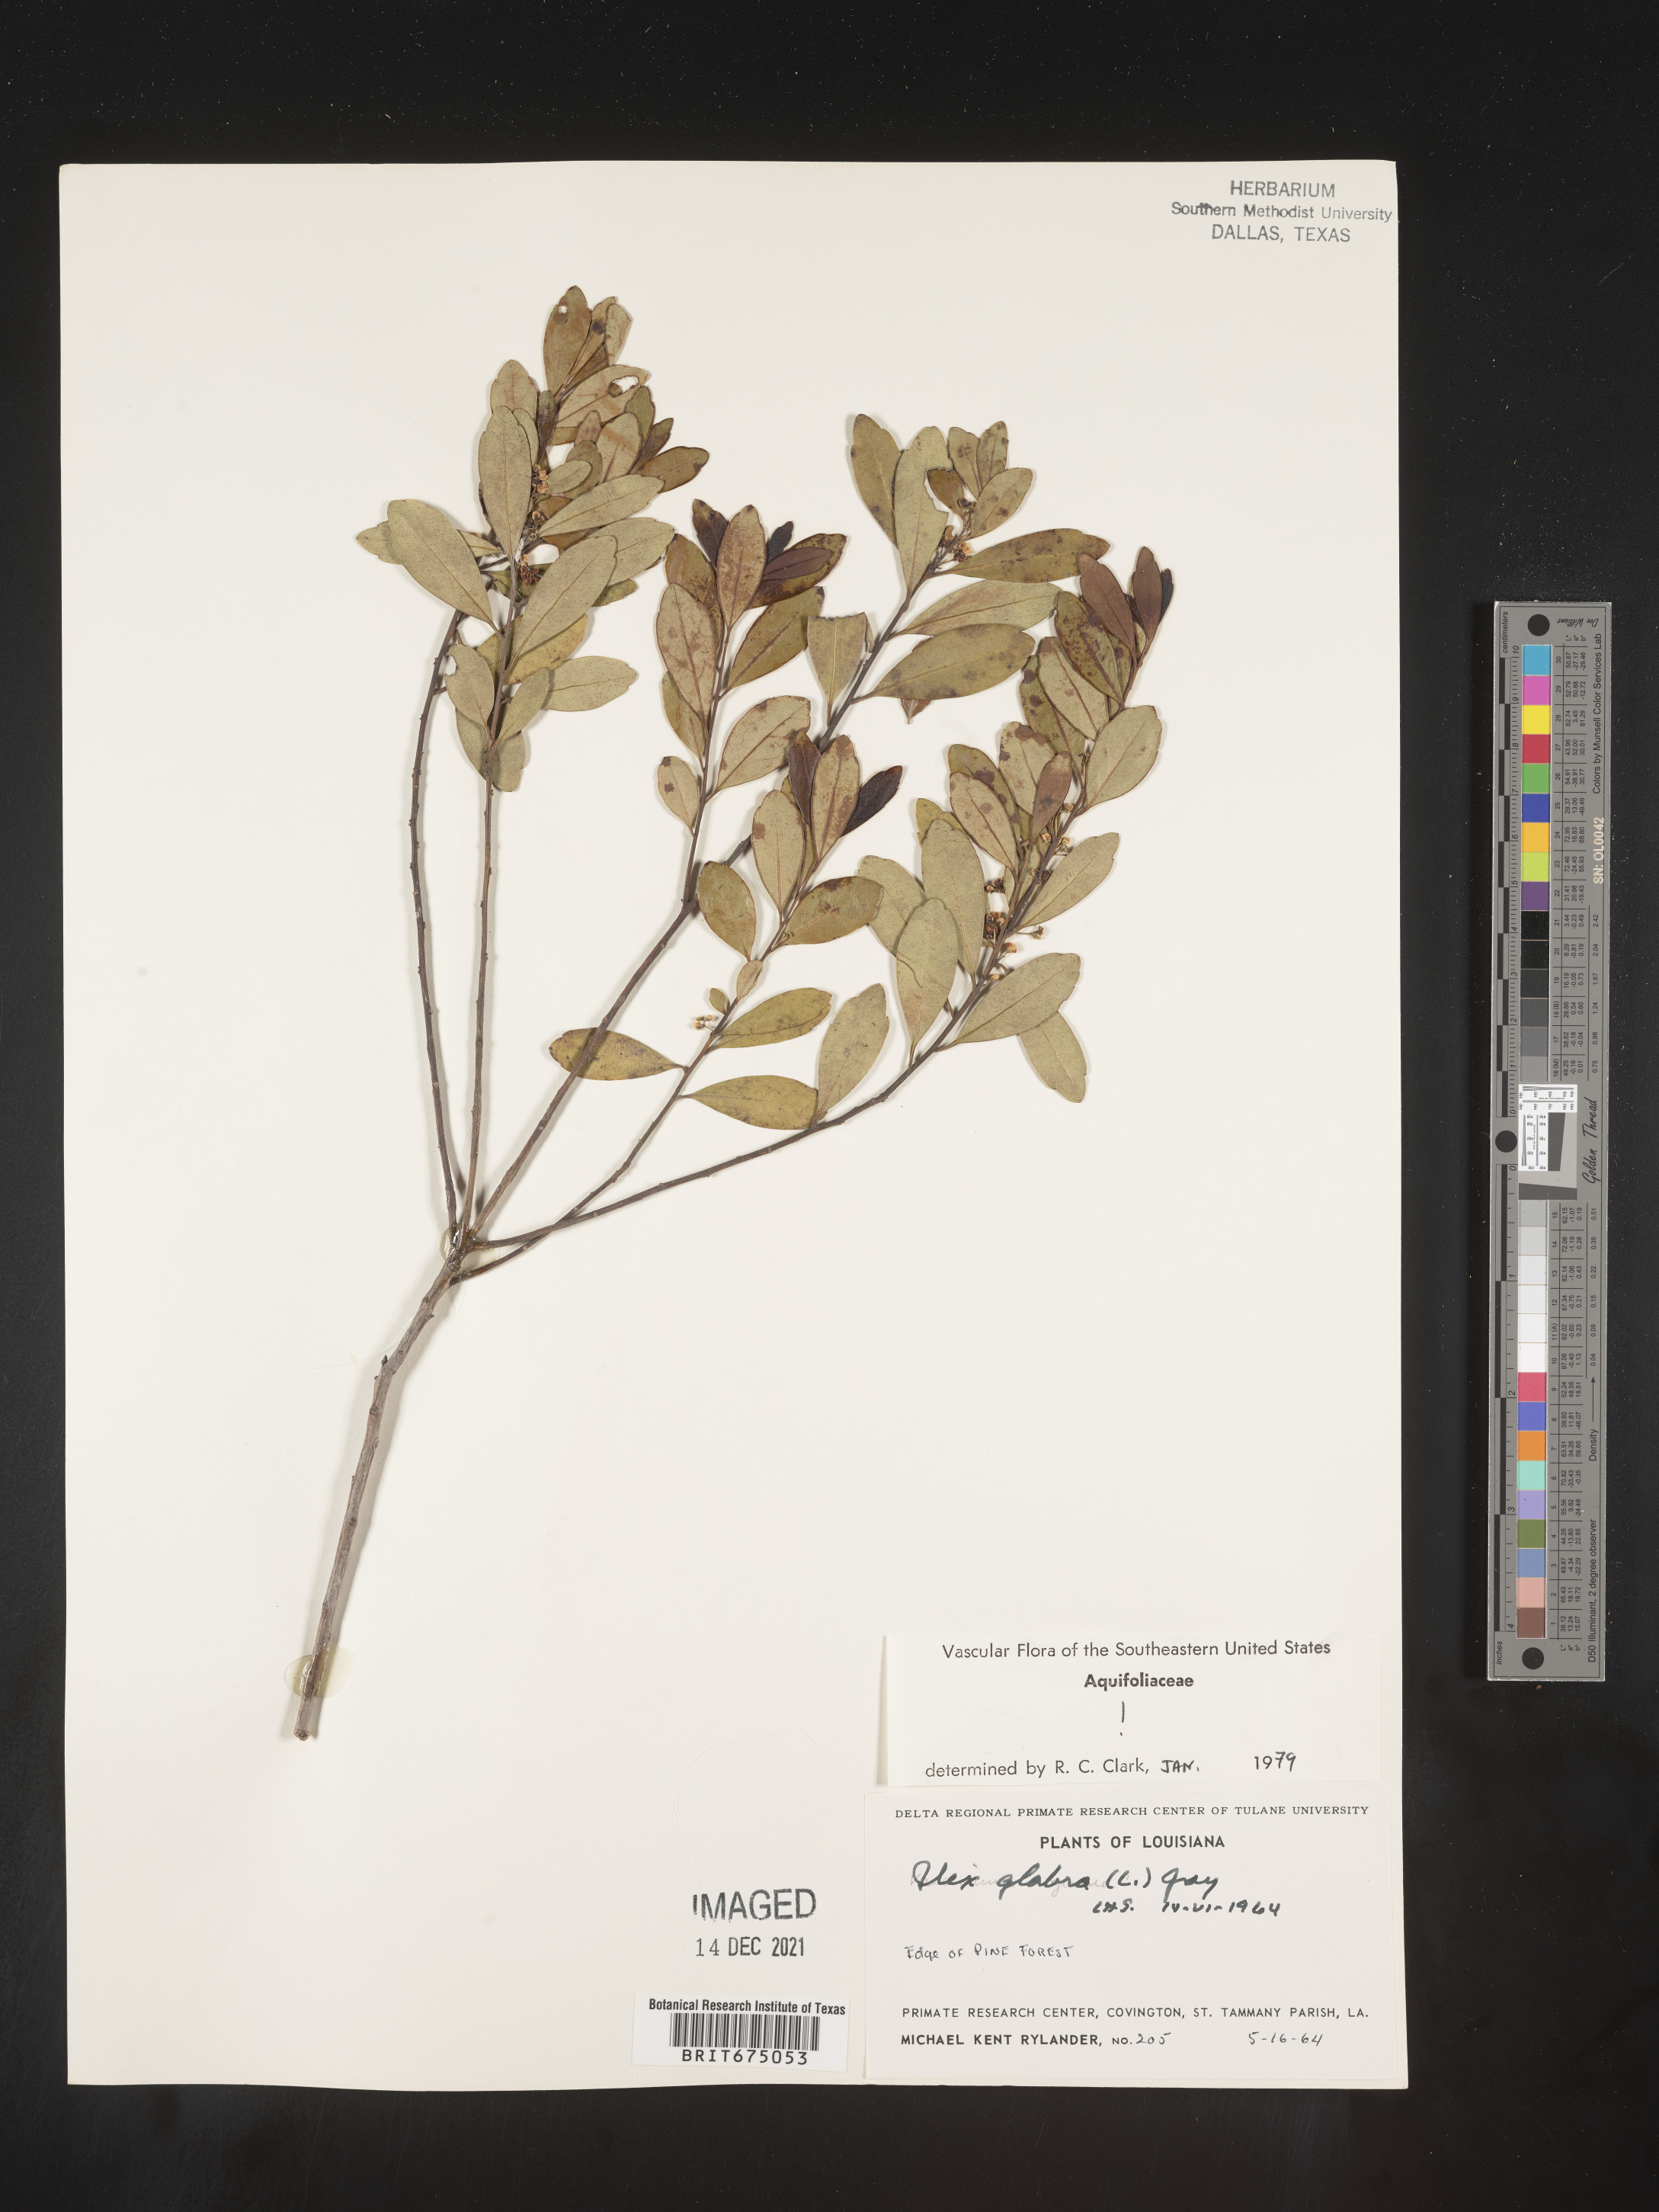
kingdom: Plantae
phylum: Tracheophyta
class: Magnoliopsida
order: Aquifoliales
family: Aquifoliaceae
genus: Ilex
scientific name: Ilex glabra
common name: Bitter gallberry
